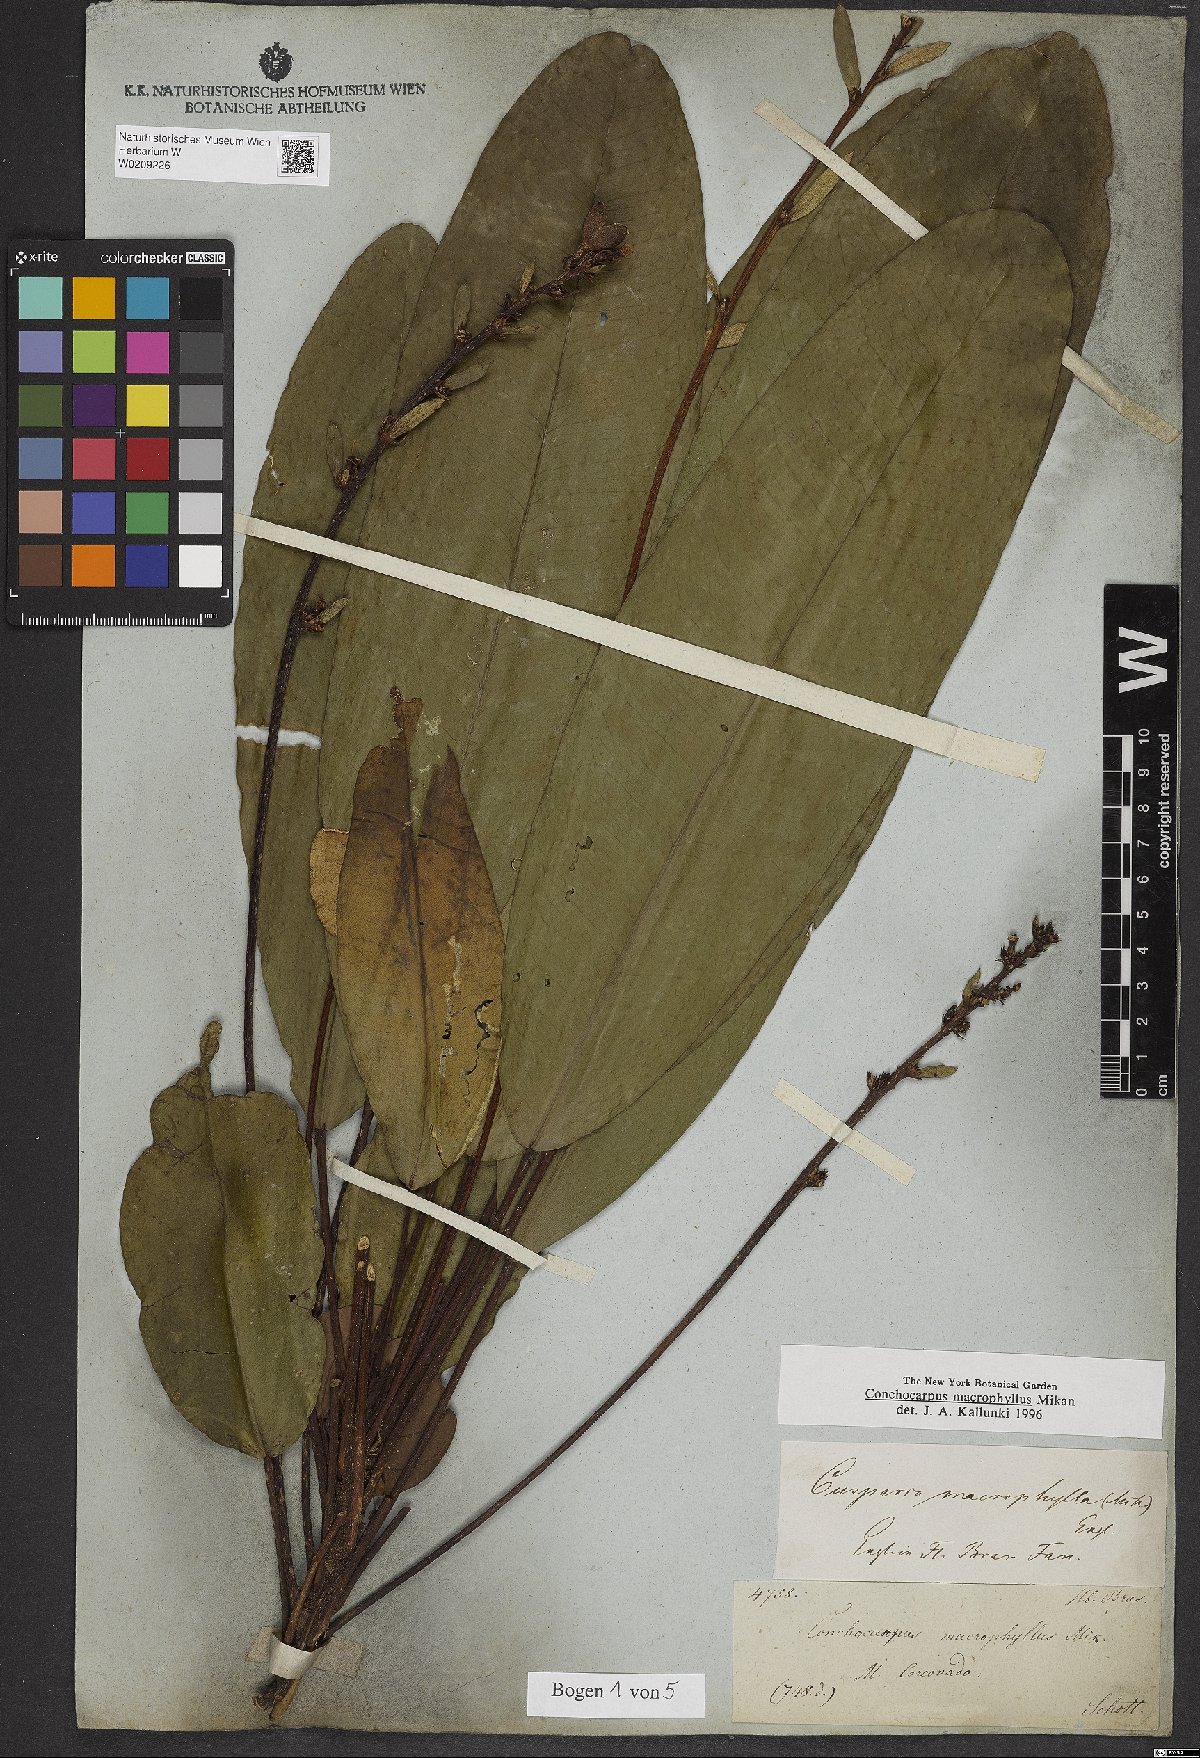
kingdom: Plantae
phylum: Tracheophyta
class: Magnoliopsida
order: Sapindales
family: Rutaceae
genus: Conchocarpus
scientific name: Conchocarpus macrophyllus
